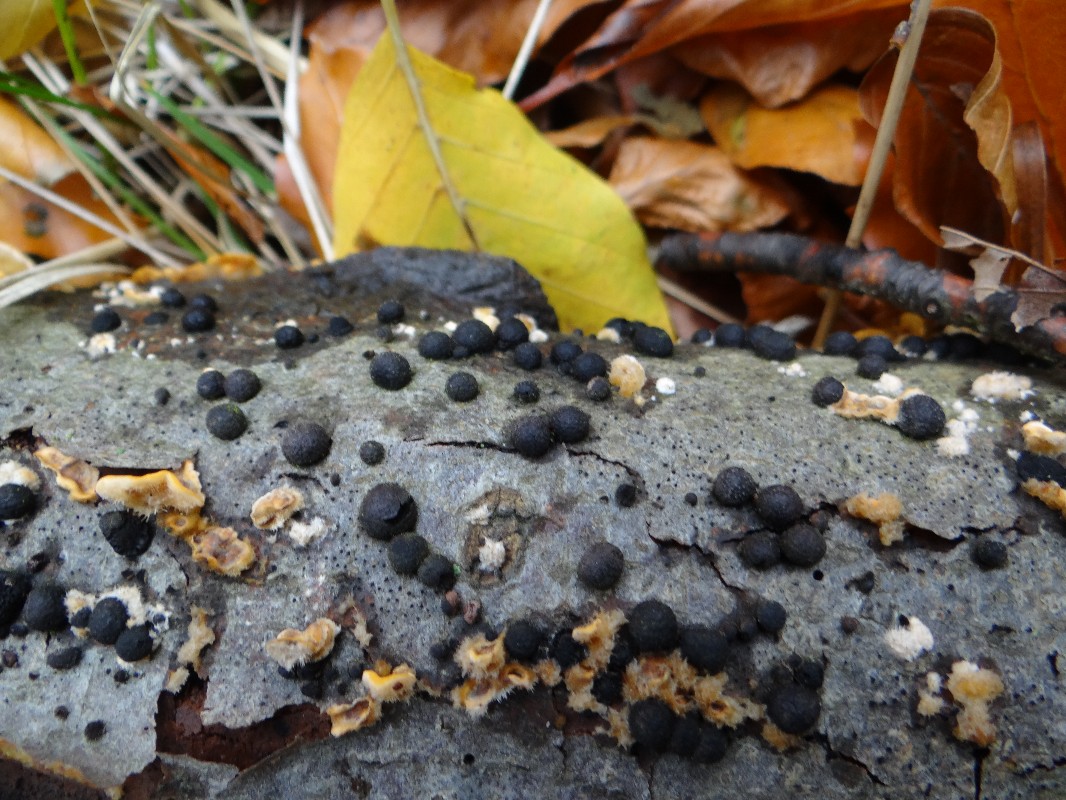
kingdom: Fungi
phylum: Ascomycota
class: Sordariomycetes
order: Xylariales
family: Hypoxylaceae
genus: Jackrogersella
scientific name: Jackrogersella multiformis
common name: foranderlig kulbær
